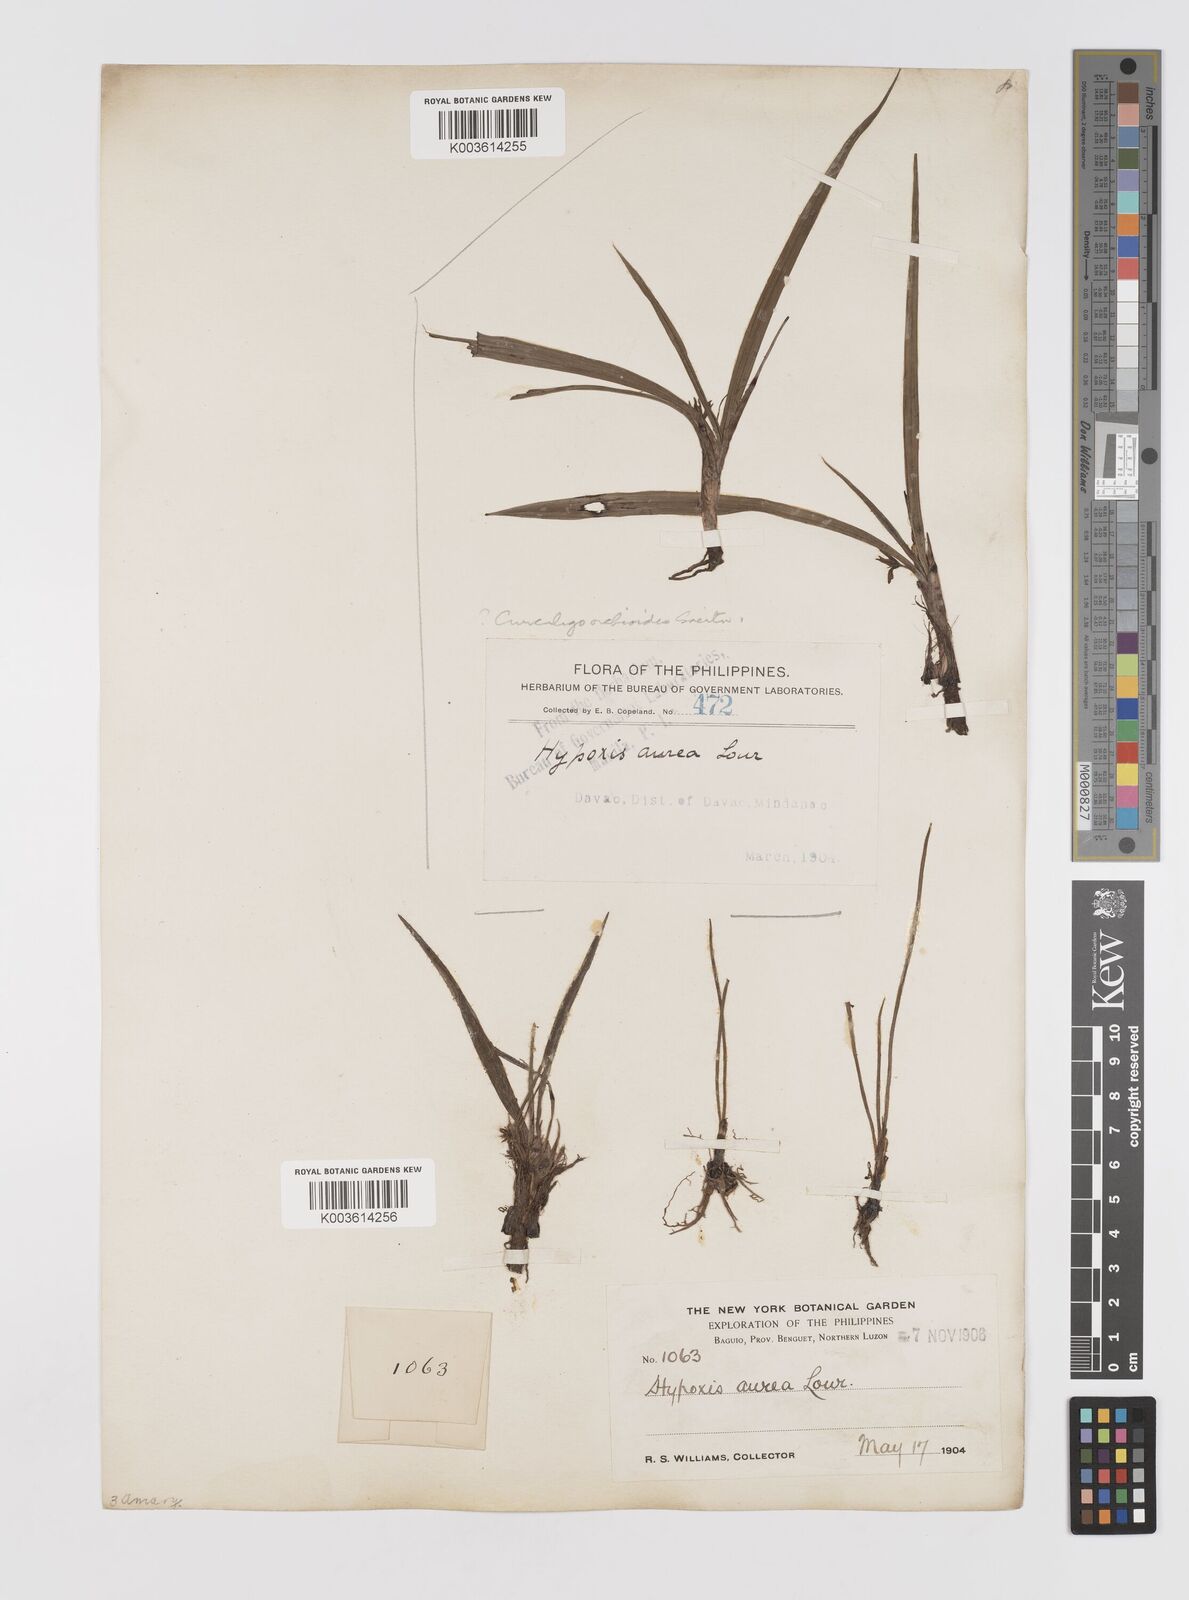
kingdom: Plantae
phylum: Tracheophyta
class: Liliopsida
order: Asparagales
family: Hypoxidaceae
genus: Curculigo
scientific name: Curculigo orchioides
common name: Golden eye-grass
